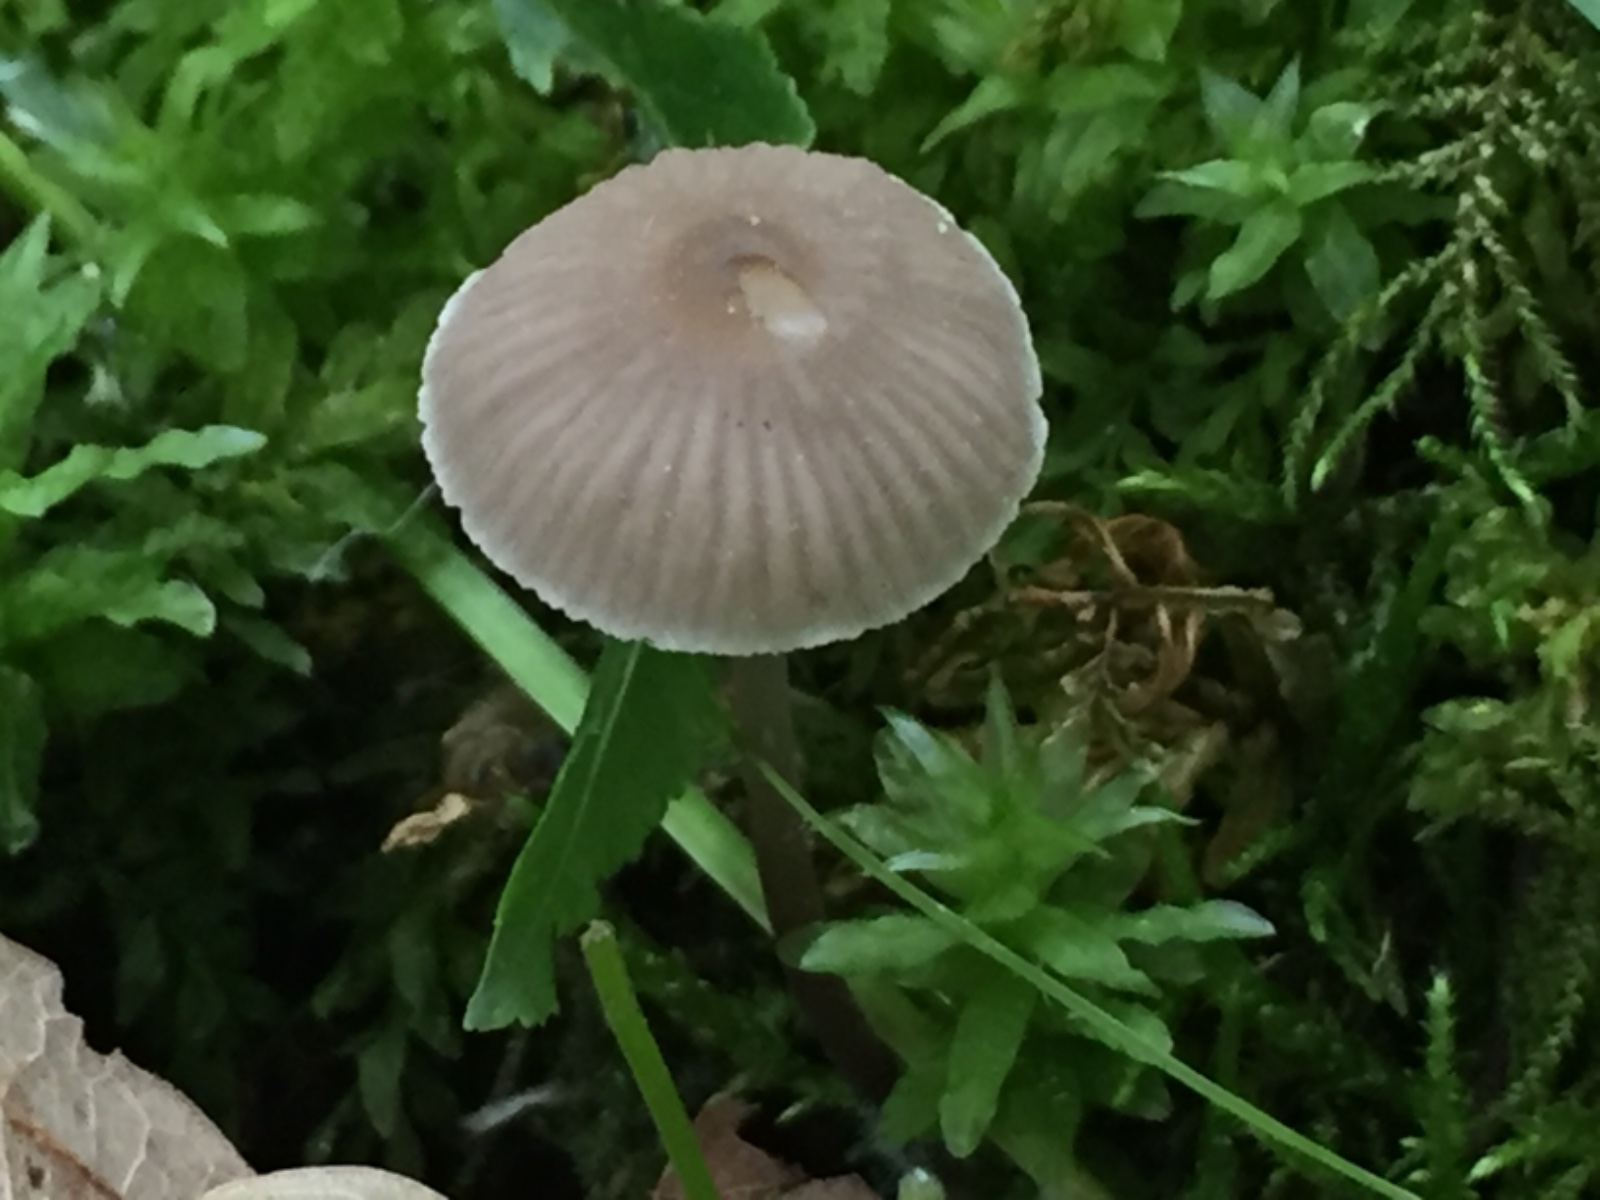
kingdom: Fungi
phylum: Basidiomycota
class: Agaricomycetes
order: Agaricales
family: Mycenaceae
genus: Mycena
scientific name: Mycena
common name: huesvamp
